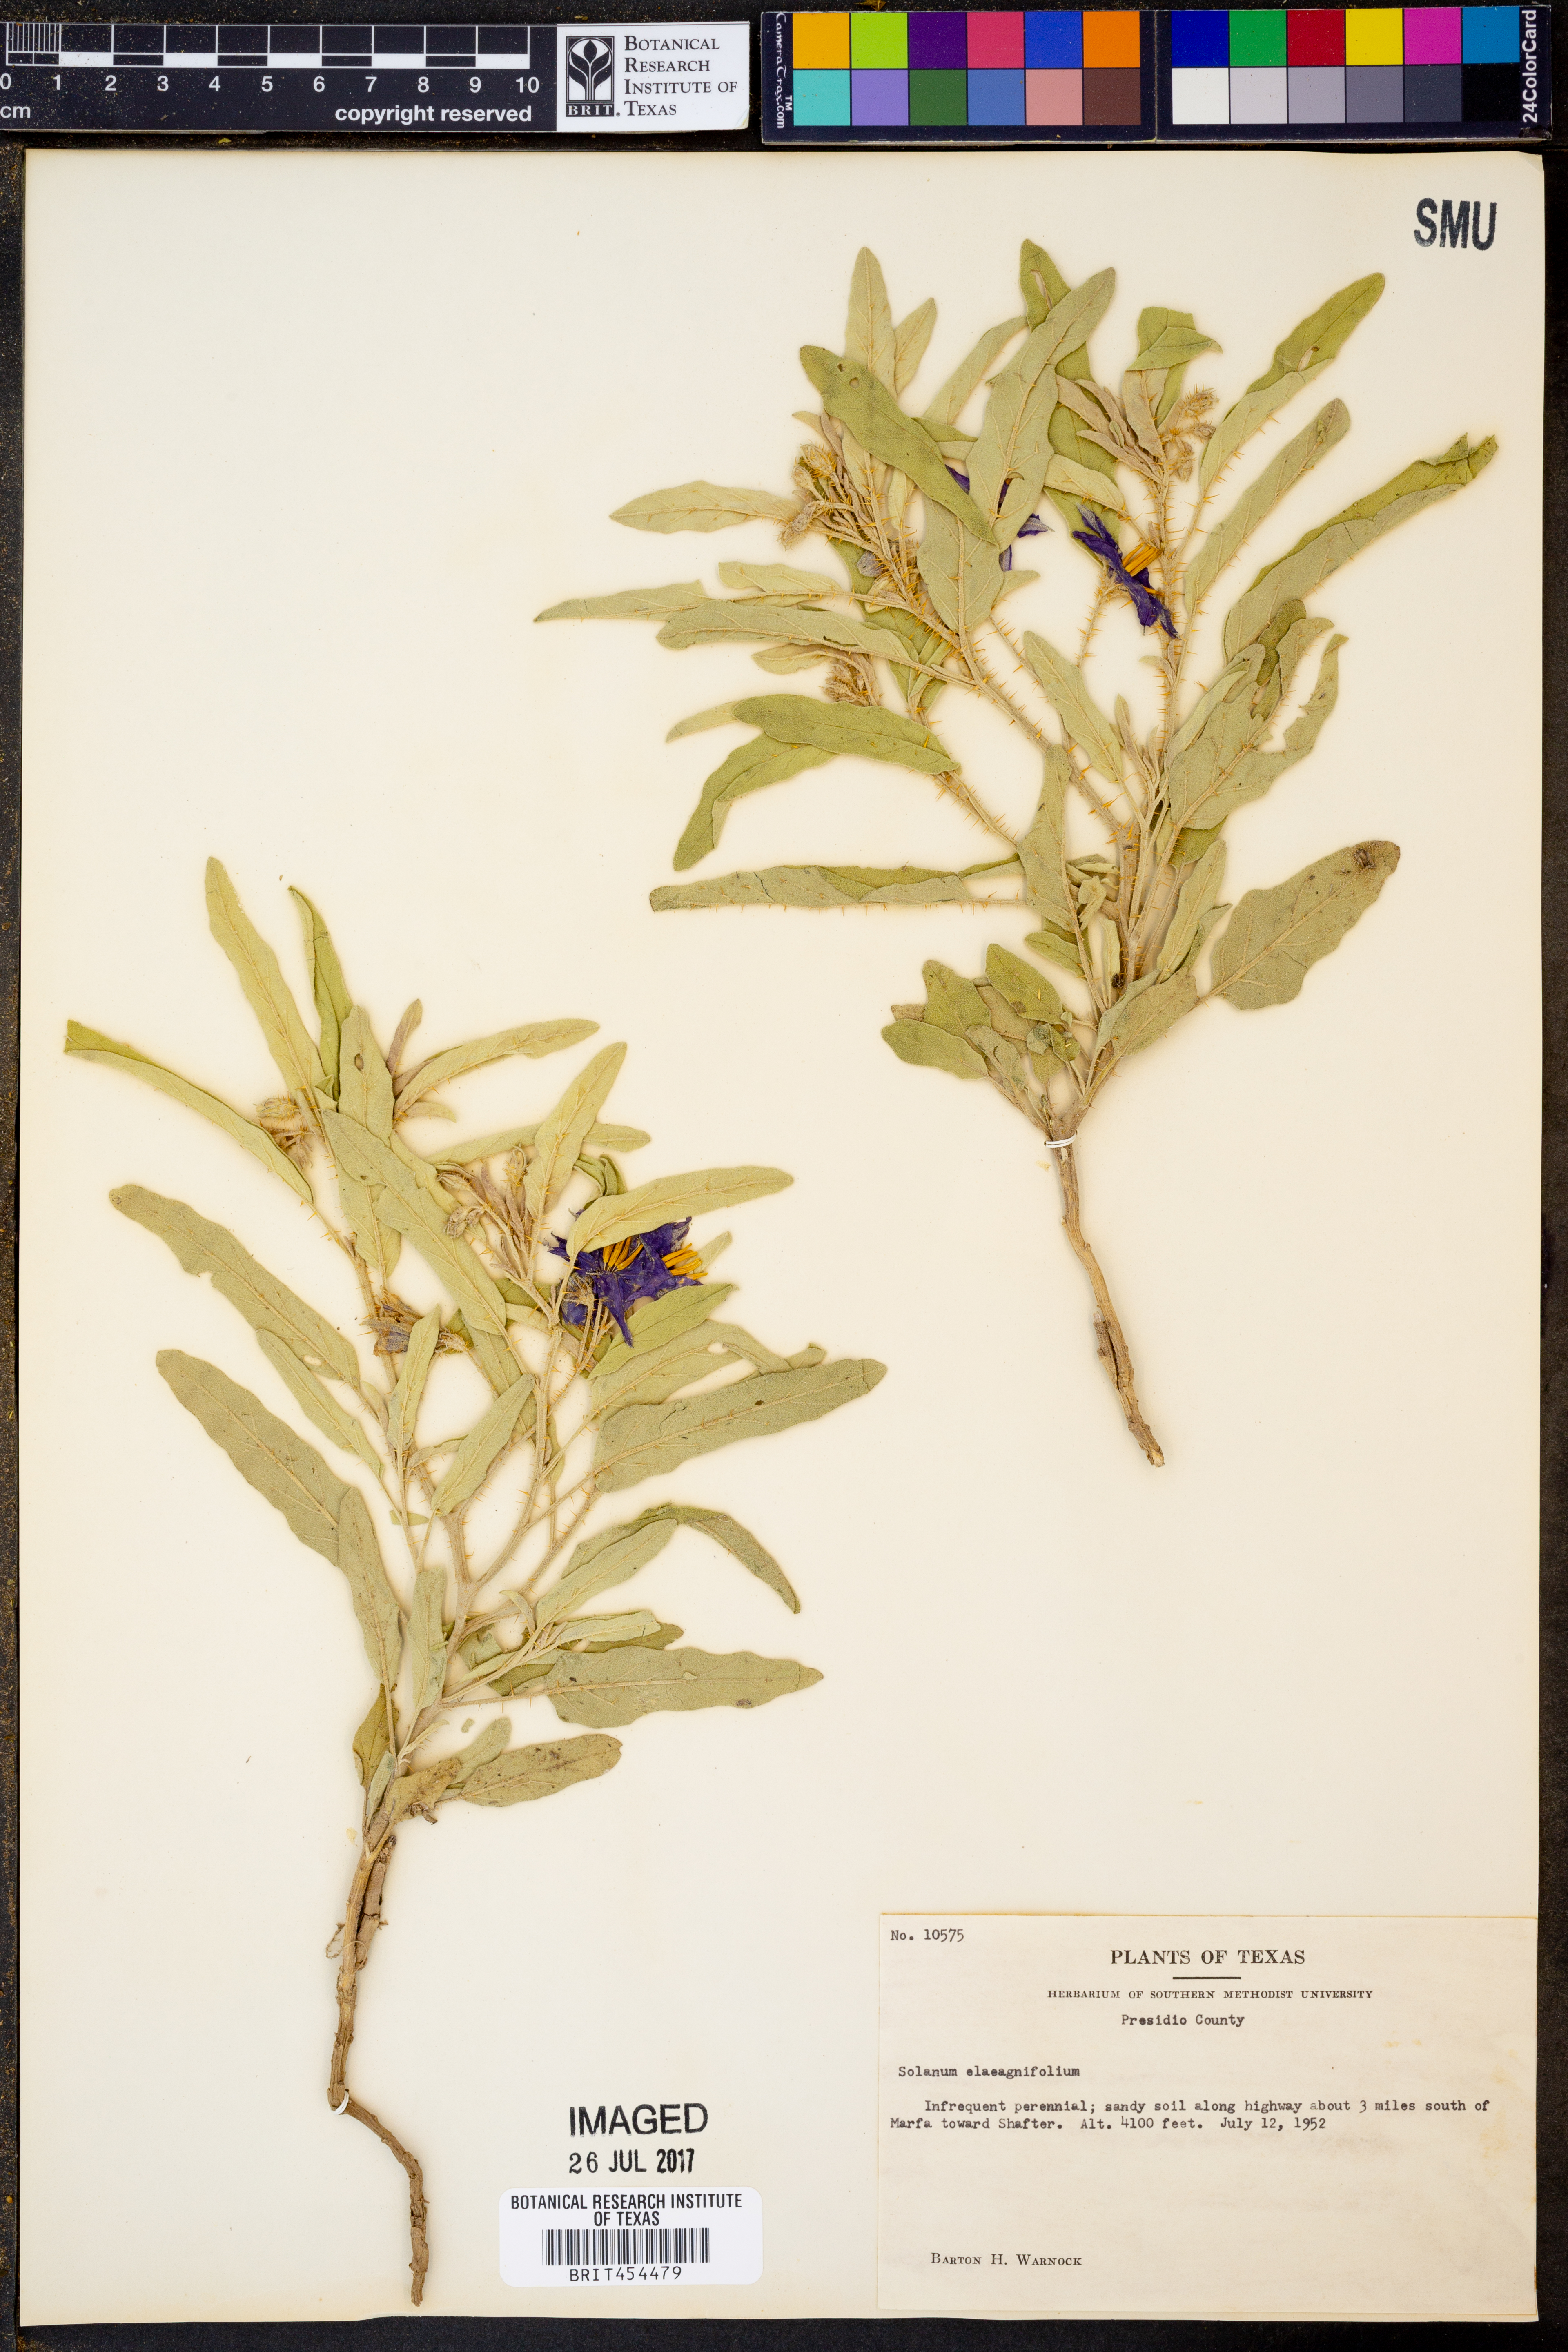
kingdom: Plantae
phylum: Tracheophyta
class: Magnoliopsida
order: Solanales
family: Solanaceae
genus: Solanum
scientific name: Solanum elaeagnifolium
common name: Silverleaf nightshade
